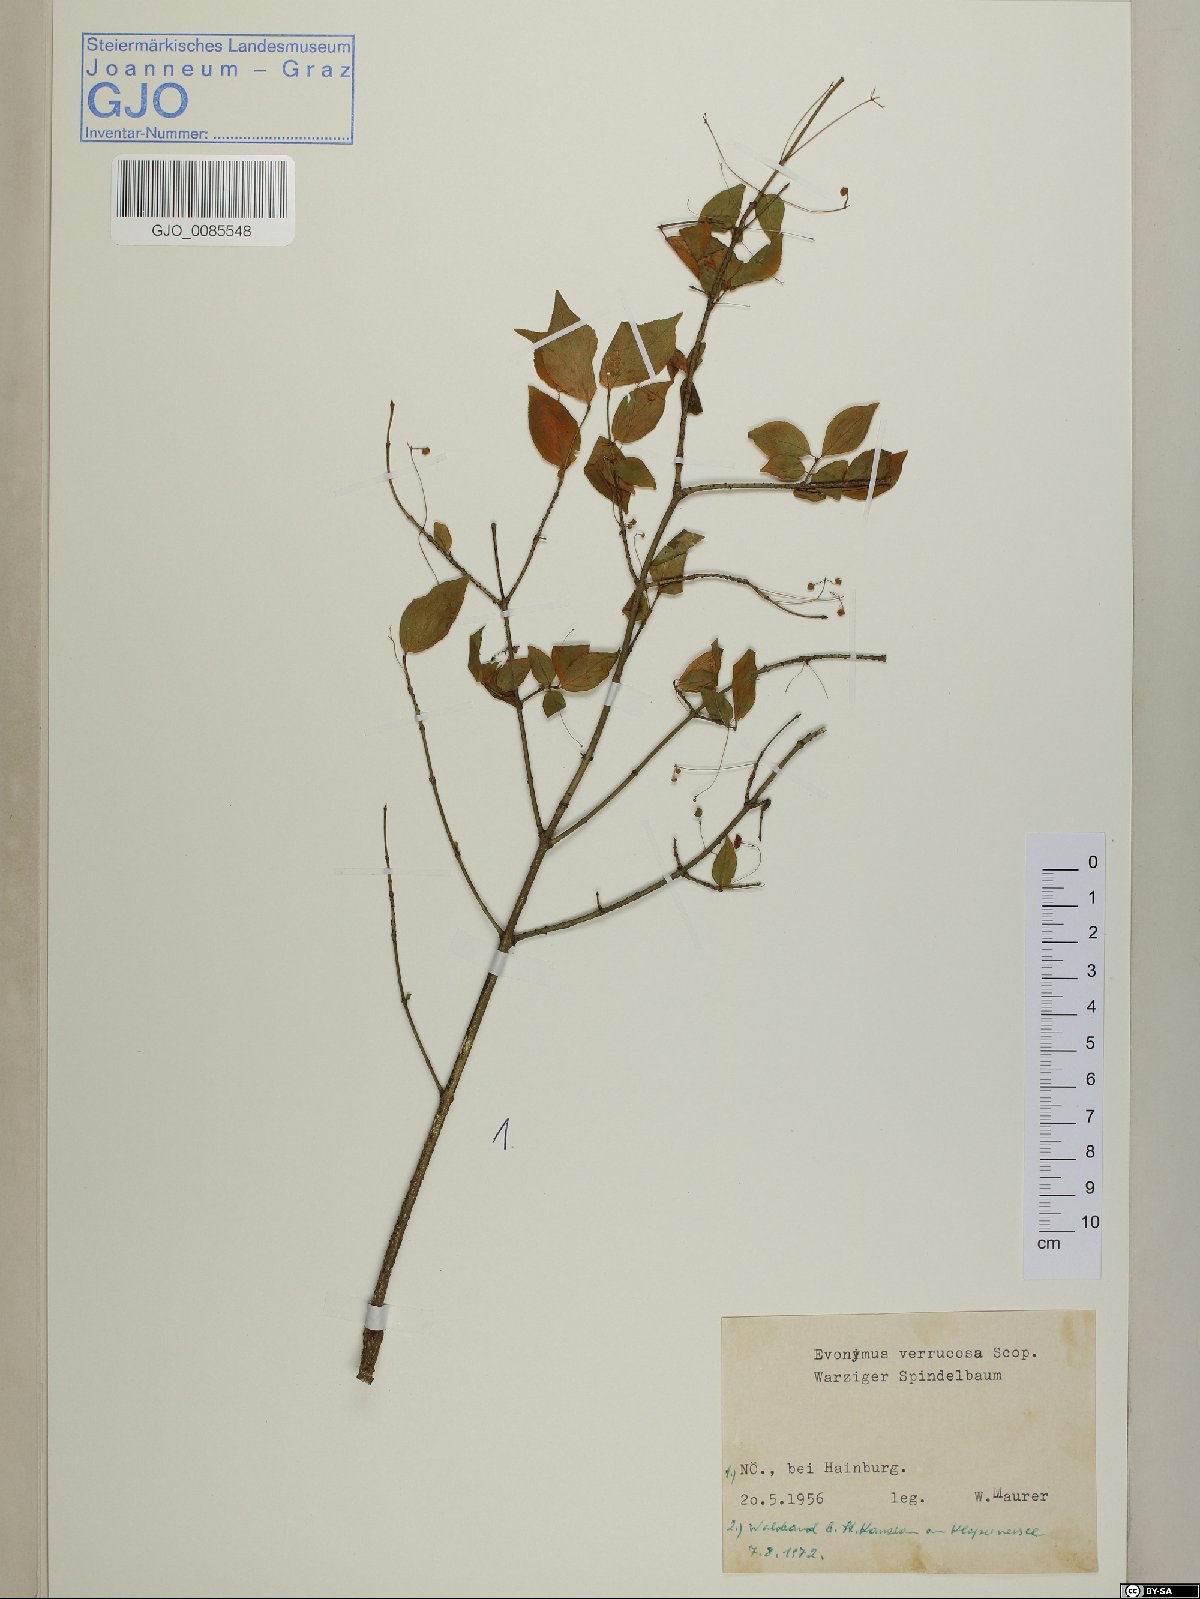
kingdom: Plantae
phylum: Tracheophyta
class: Magnoliopsida
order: Celastrales
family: Celastraceae
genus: Euonymus
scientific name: Euonymus verrucosus
